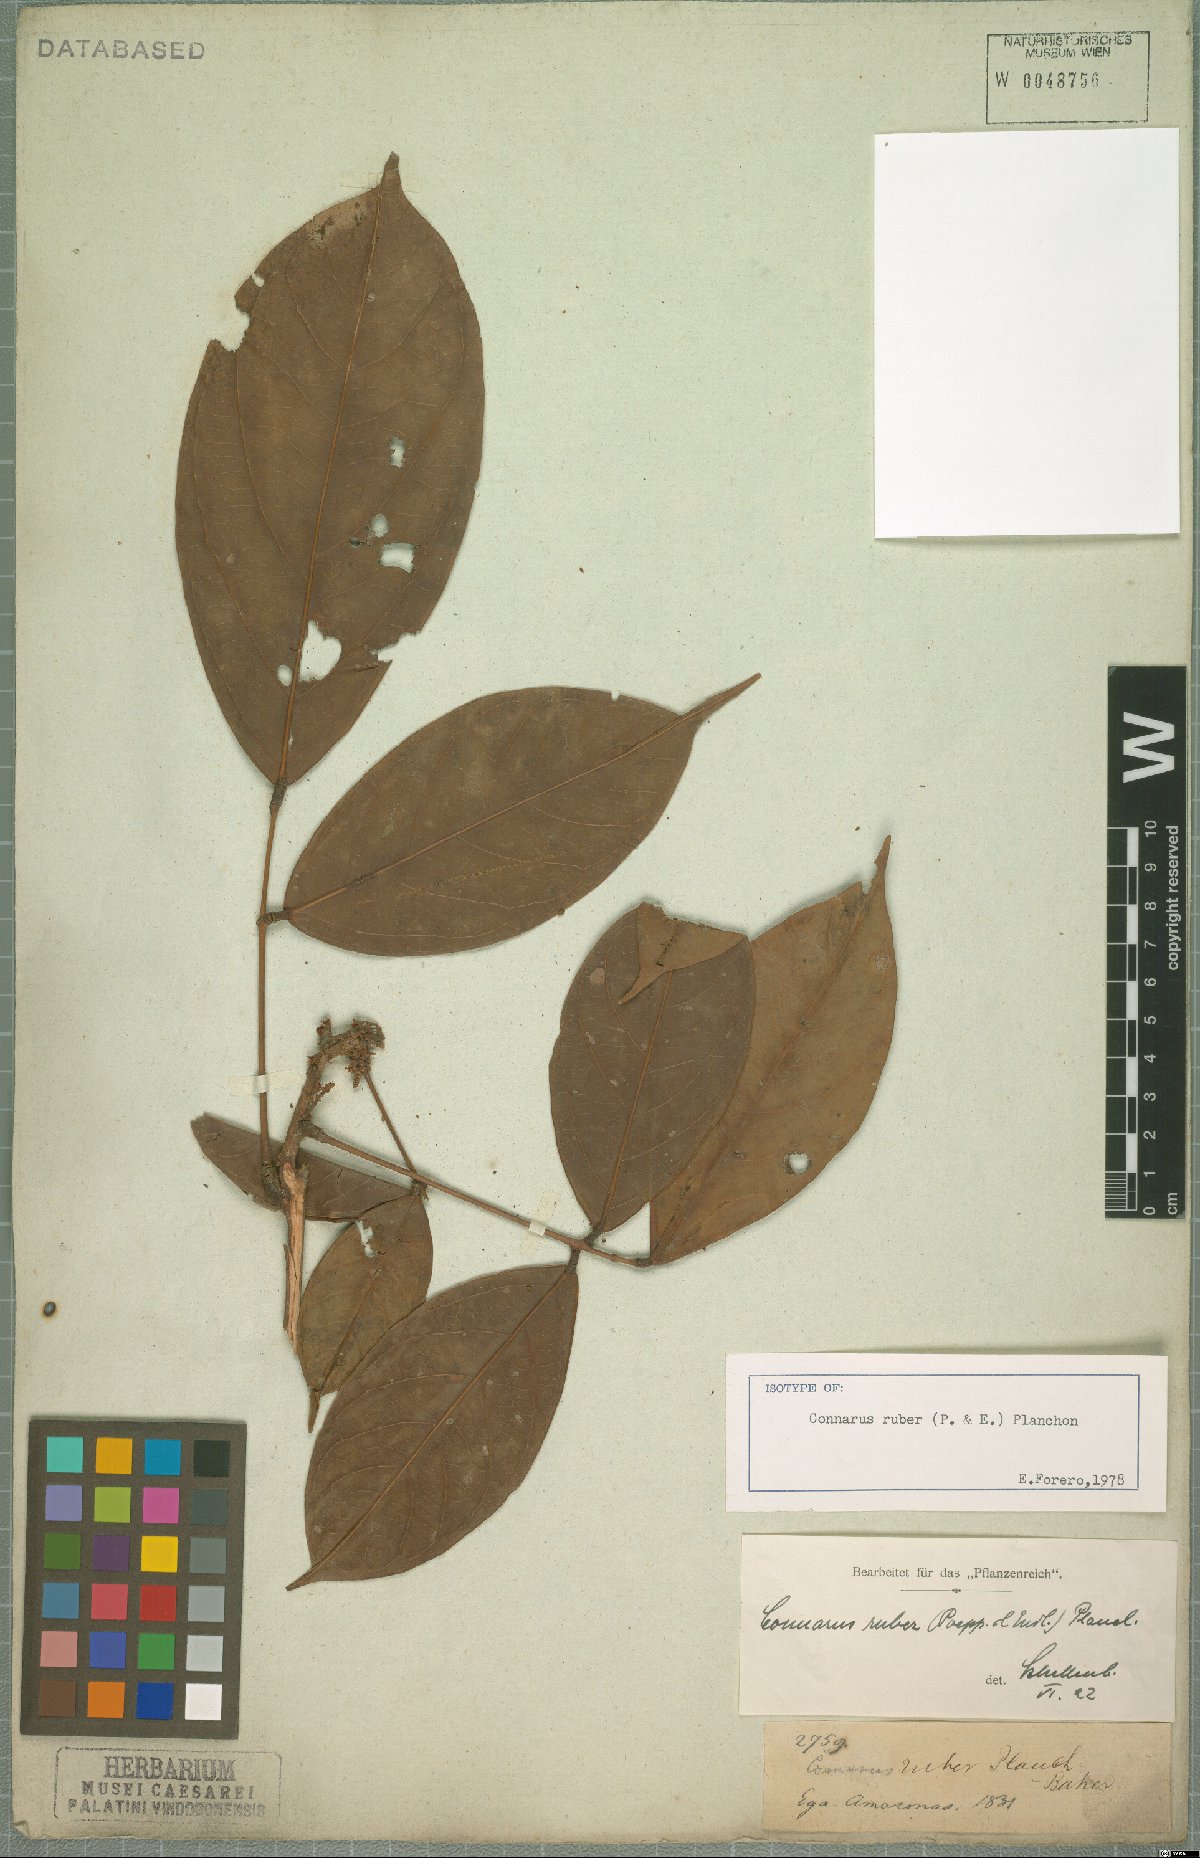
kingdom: Plantae
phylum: Tracheophyta
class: Magnoliopsida
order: Oxalidales
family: Connaraceae
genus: Connarus
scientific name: Connarus ruber
